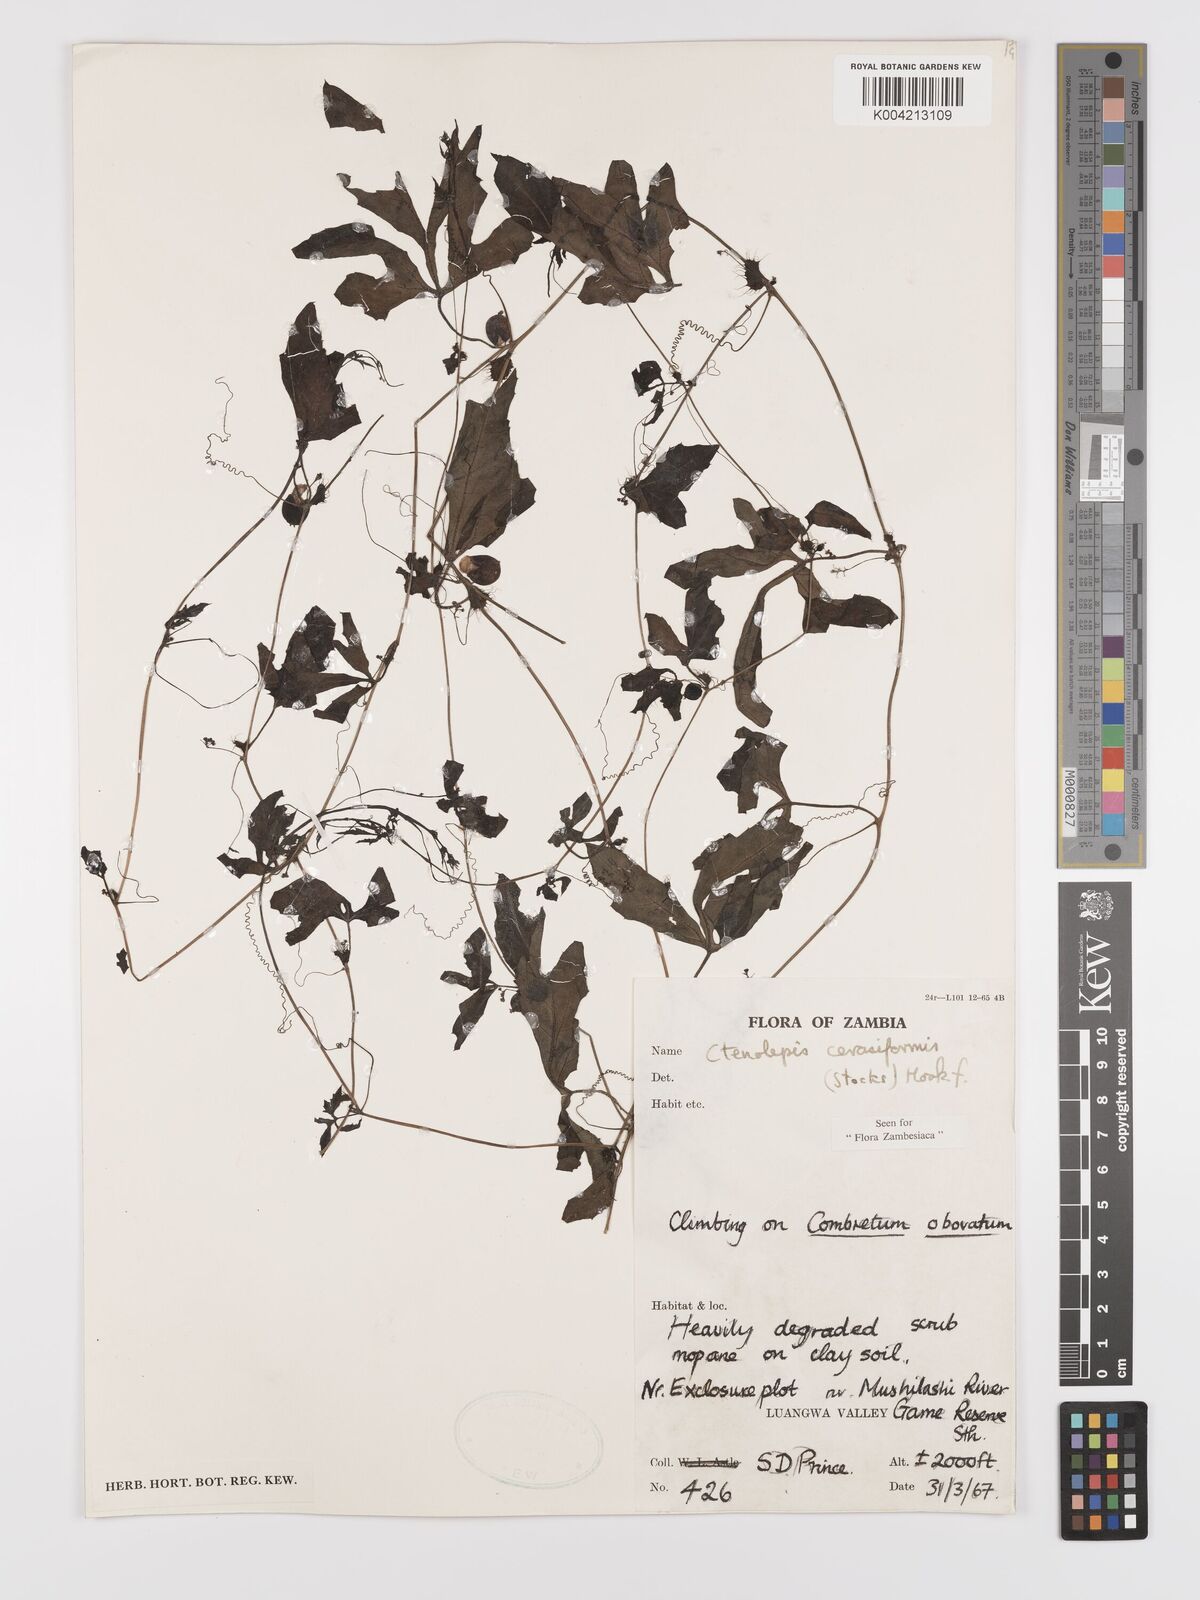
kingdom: Plantae
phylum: Tracheophyta
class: Magnoliopsida
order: Cucurbitales
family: Cucurbitaceae
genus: Blastania
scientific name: Blastania cerasiformis
